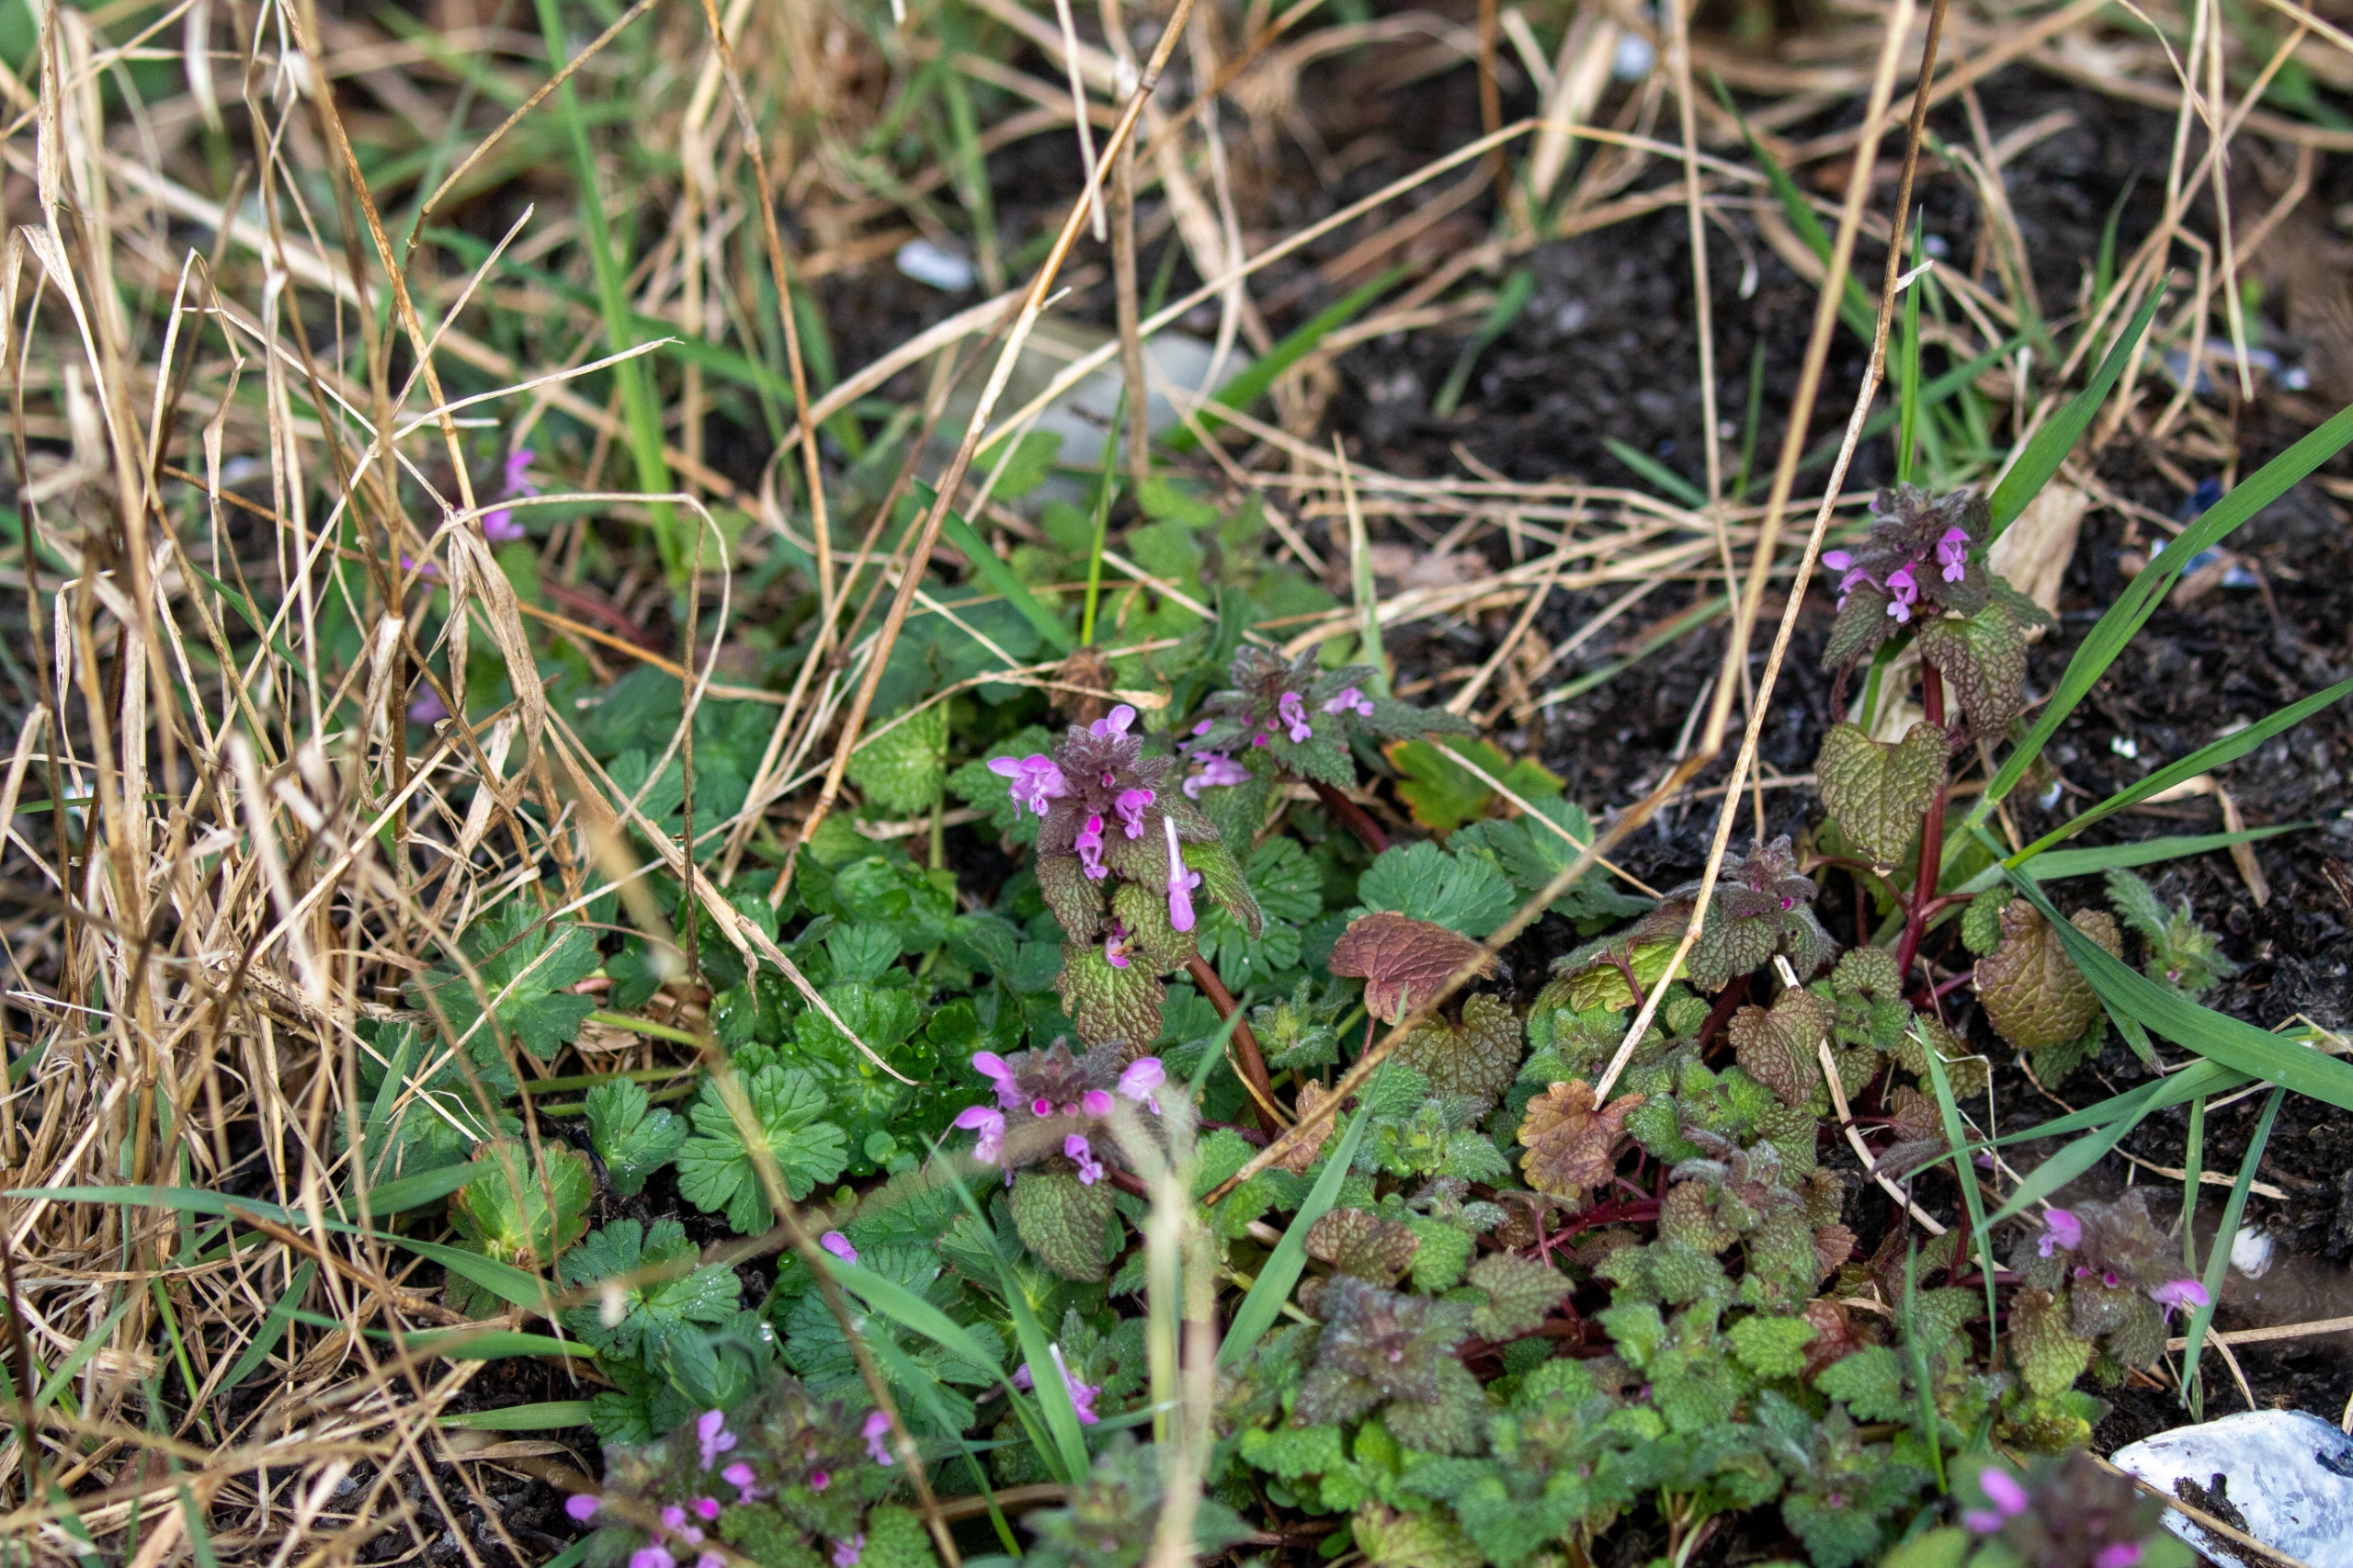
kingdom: Plantae
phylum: Tracheophyta
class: Magnoliopsida
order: Lamiales
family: Lamiaceae
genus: Lamium
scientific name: Lamium purpureum
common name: Rød tvetand
